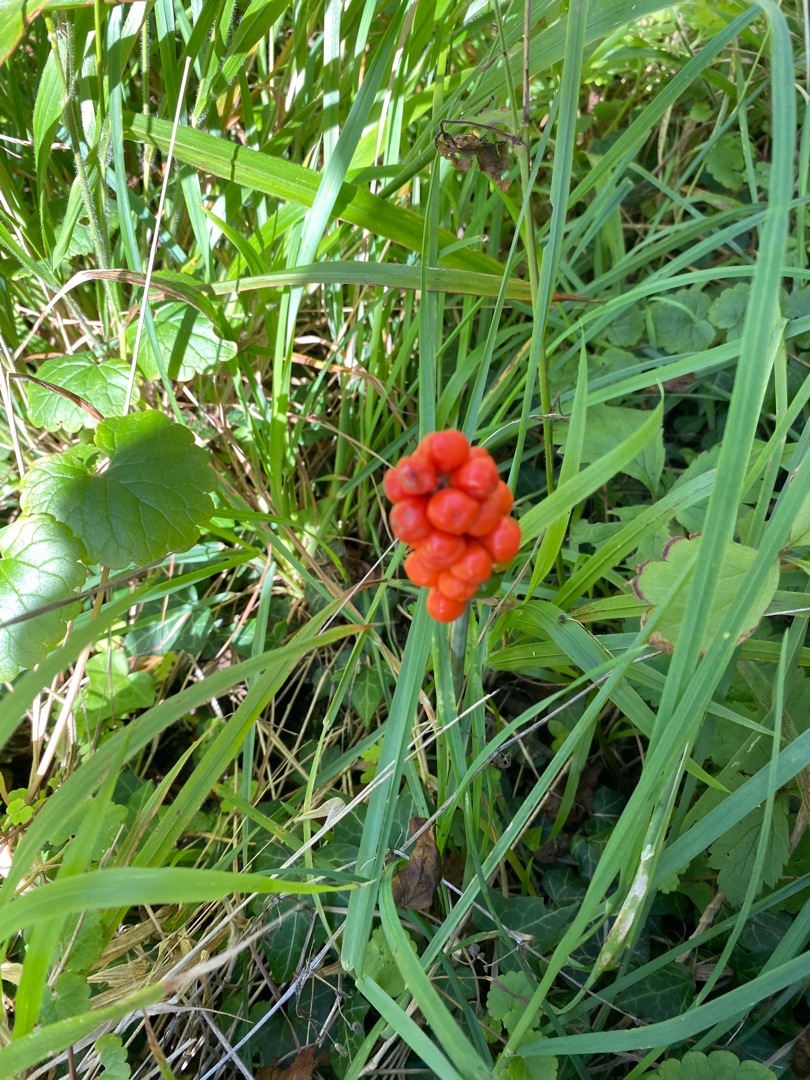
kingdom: Plantae
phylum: Tracheophyta
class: Liliopsida
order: Alismatales
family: Araceae
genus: Arum
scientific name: Arum
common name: Arumslægten
